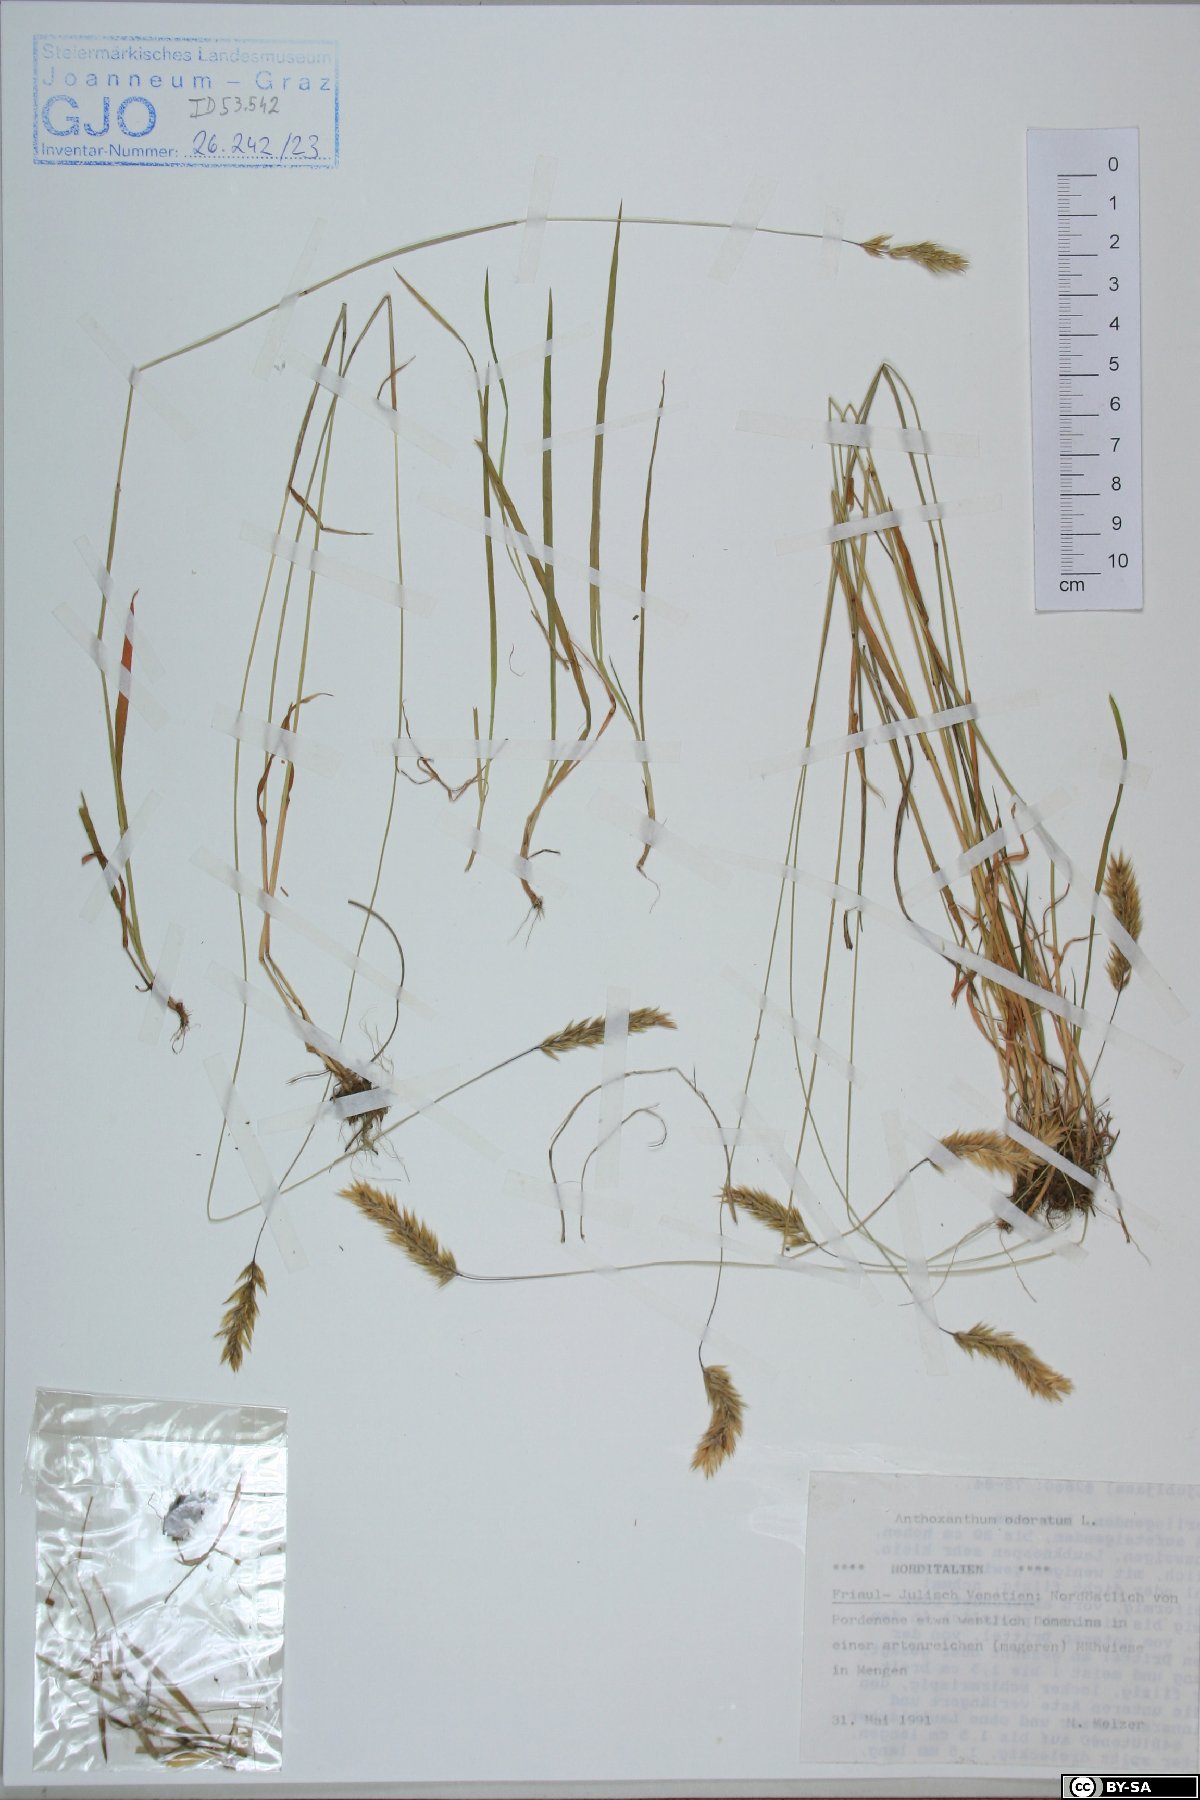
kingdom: Plantae
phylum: Tracheophyta
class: Liliopsida
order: Poales
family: Poaceae
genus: Anthoxanthum
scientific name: Anthoxanthum odoratum
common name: Sweet vernalgrass
